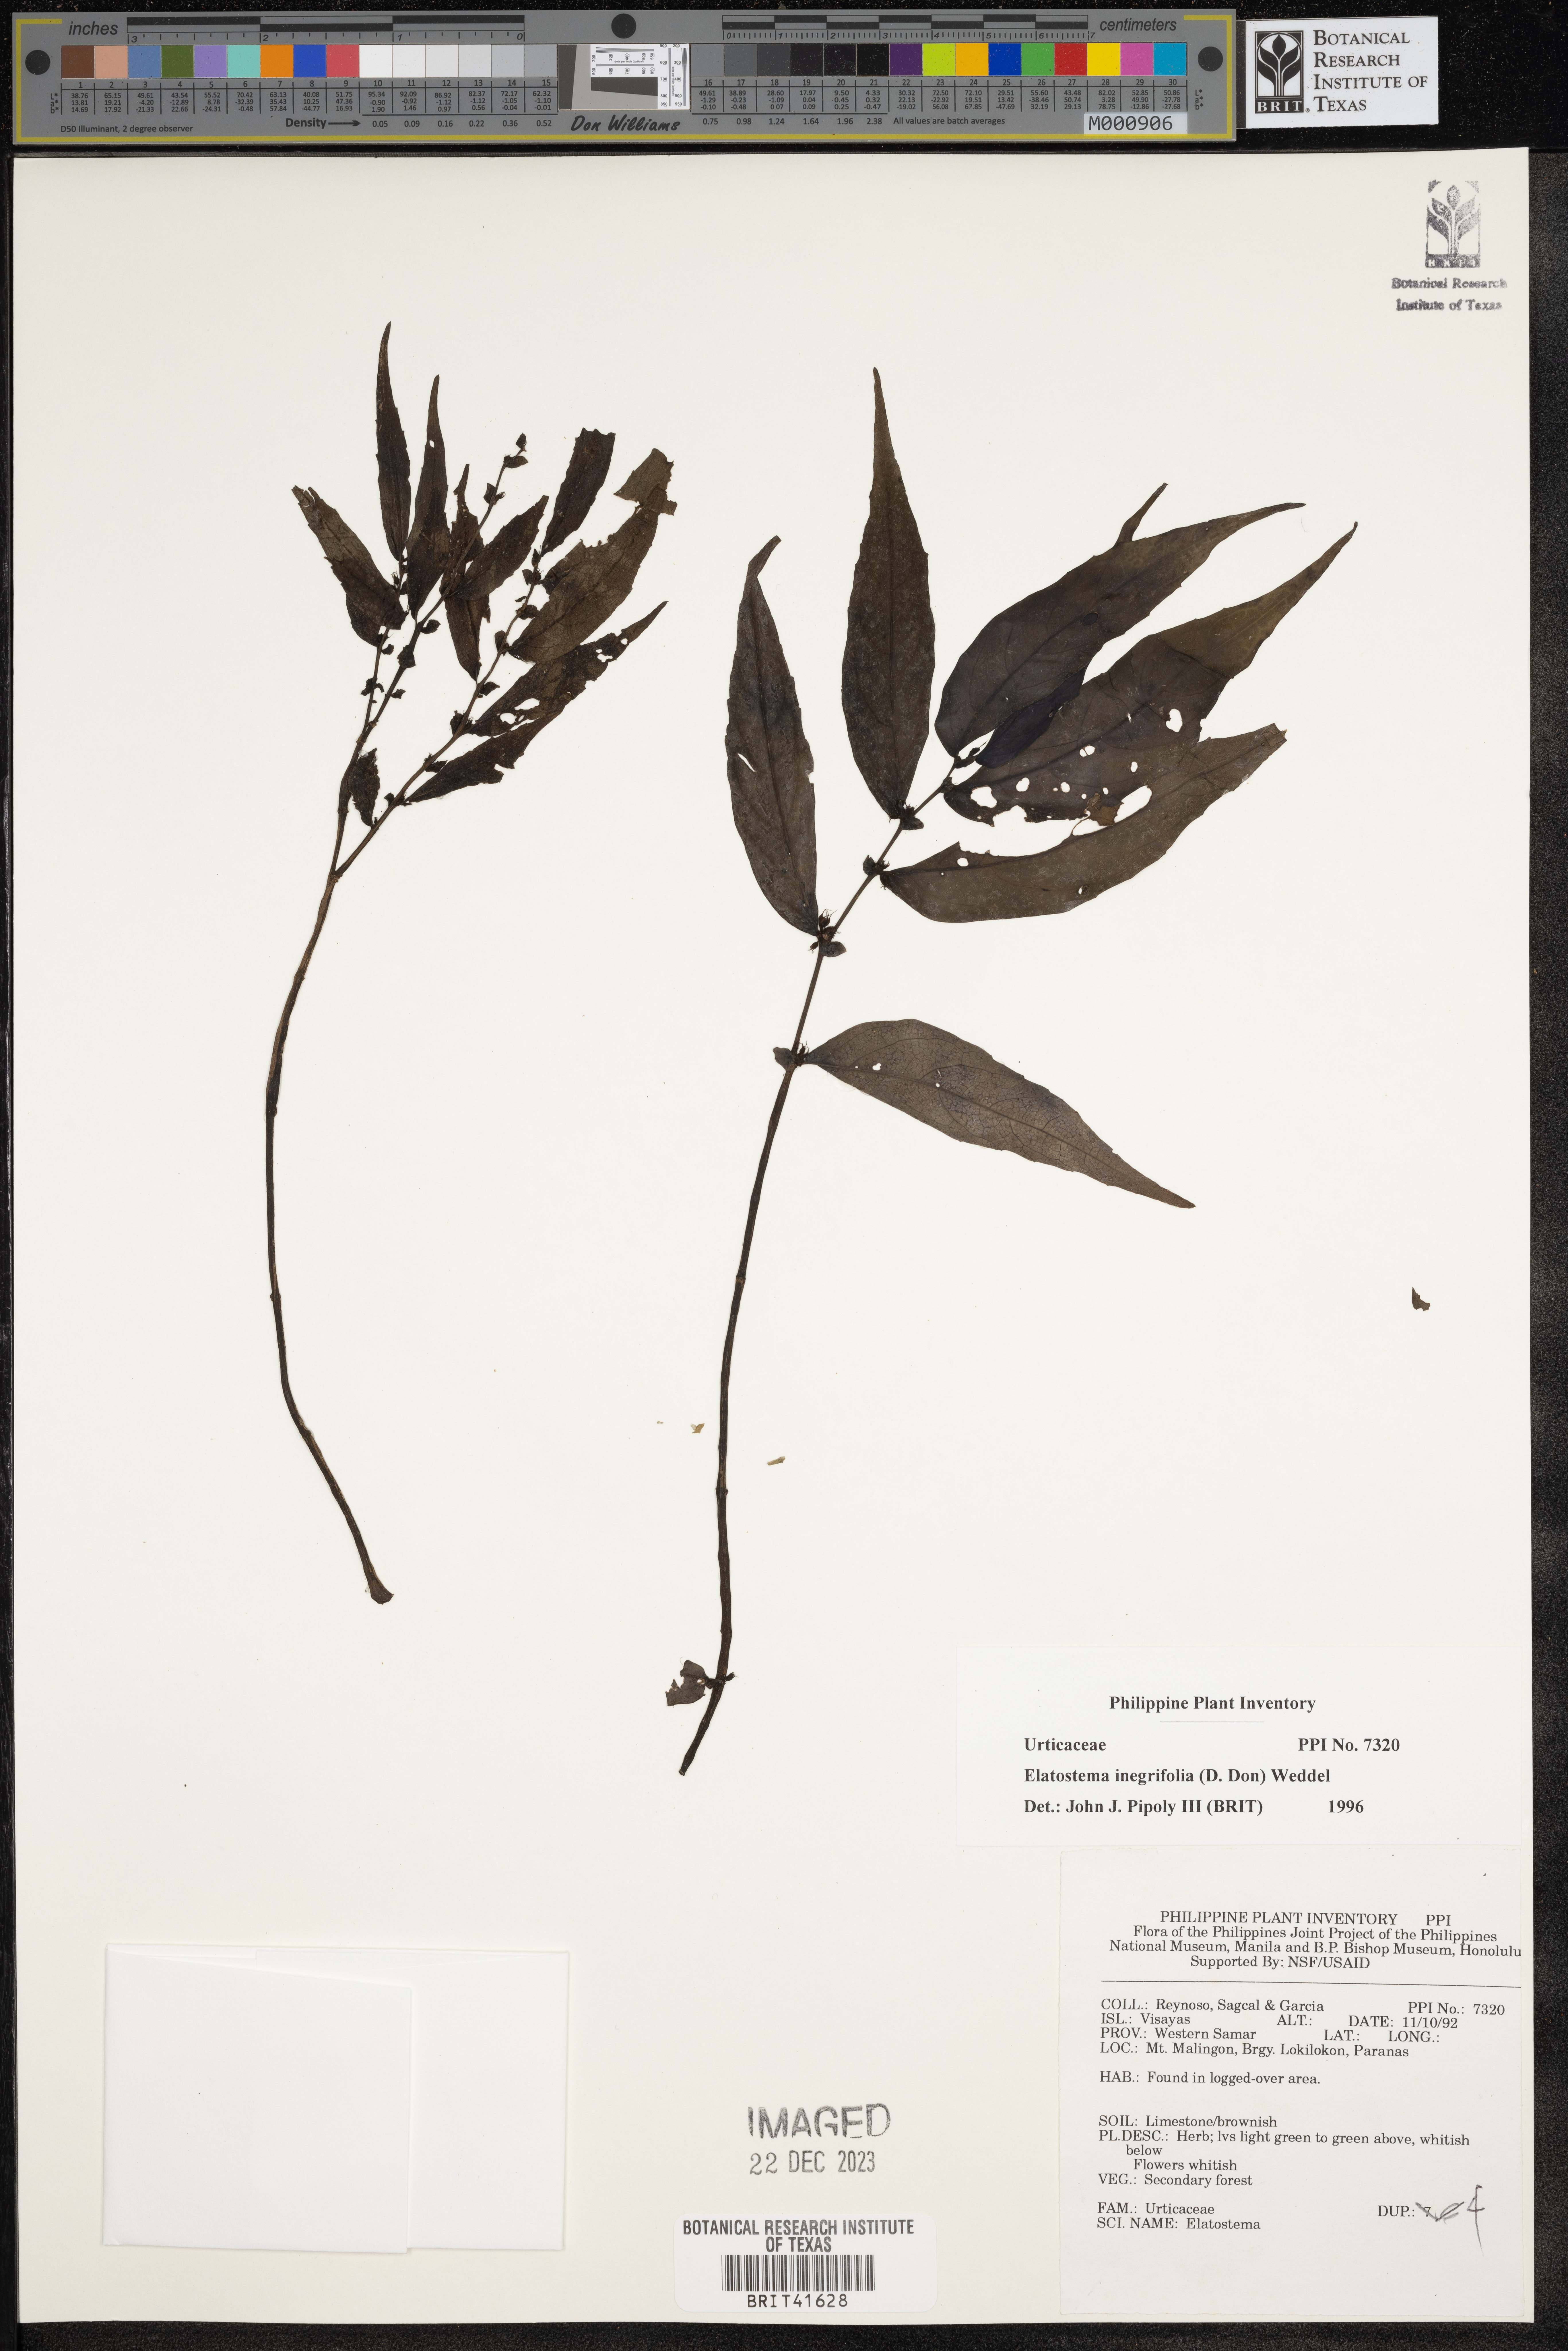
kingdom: Plantae
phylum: Tracheophyta
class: Magnoliopsida
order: Rosales
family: Urticaceae
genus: Elatostema
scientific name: Elatostema integrifolium
